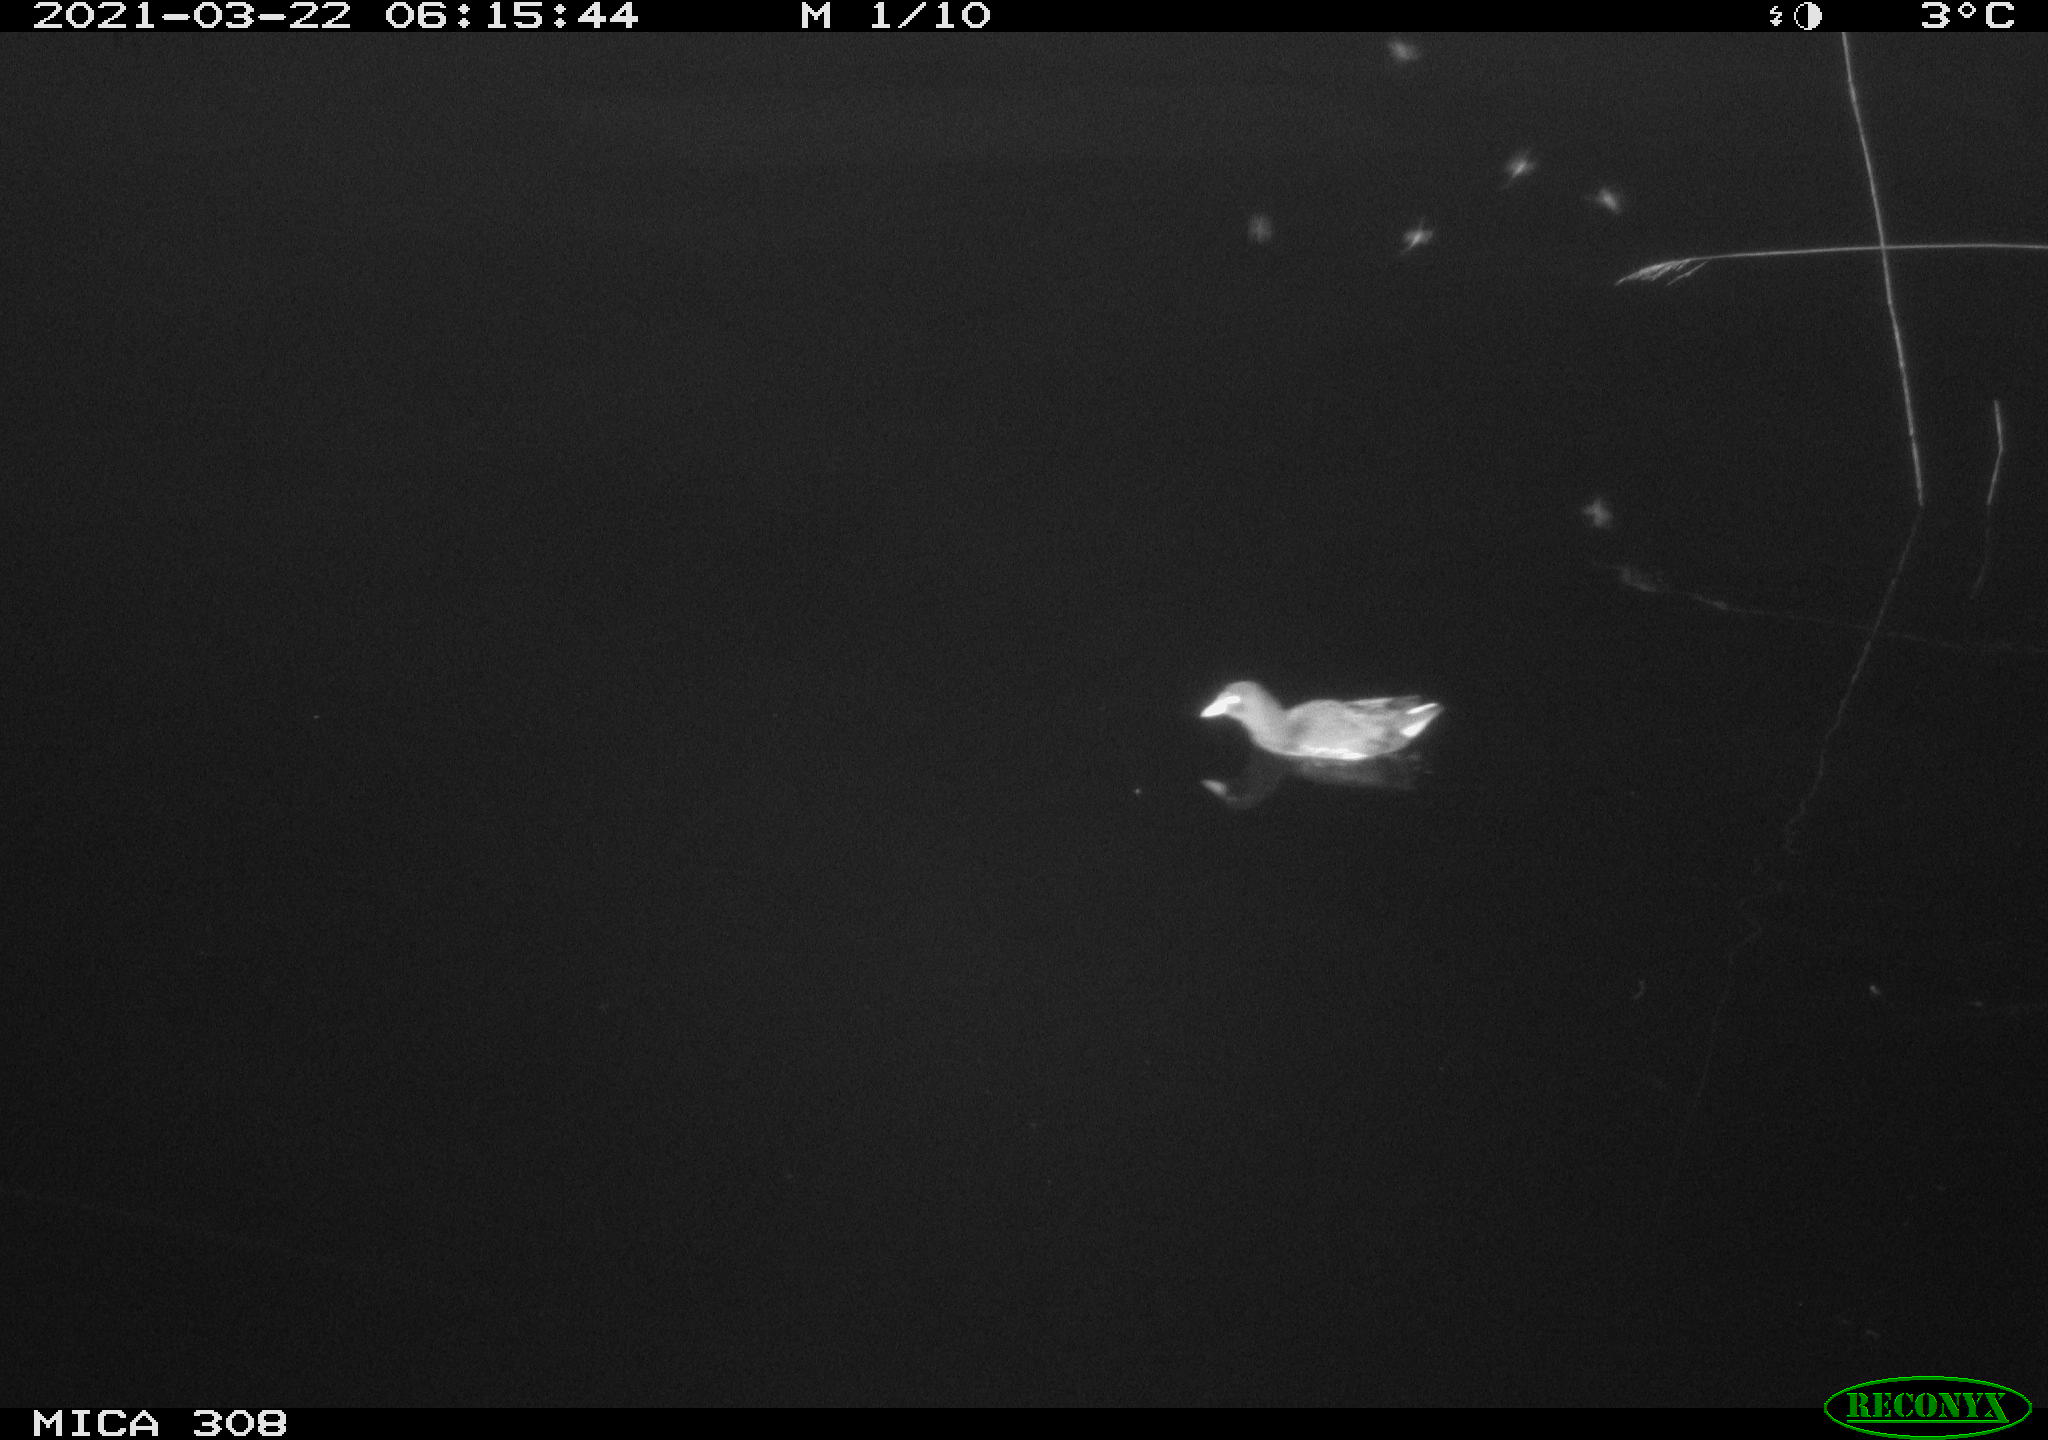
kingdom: Animalia
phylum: Chordata
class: Aves
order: Anseriformes
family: Anatidae
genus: Anas
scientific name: Anas platyrhynchos
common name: Mallard
